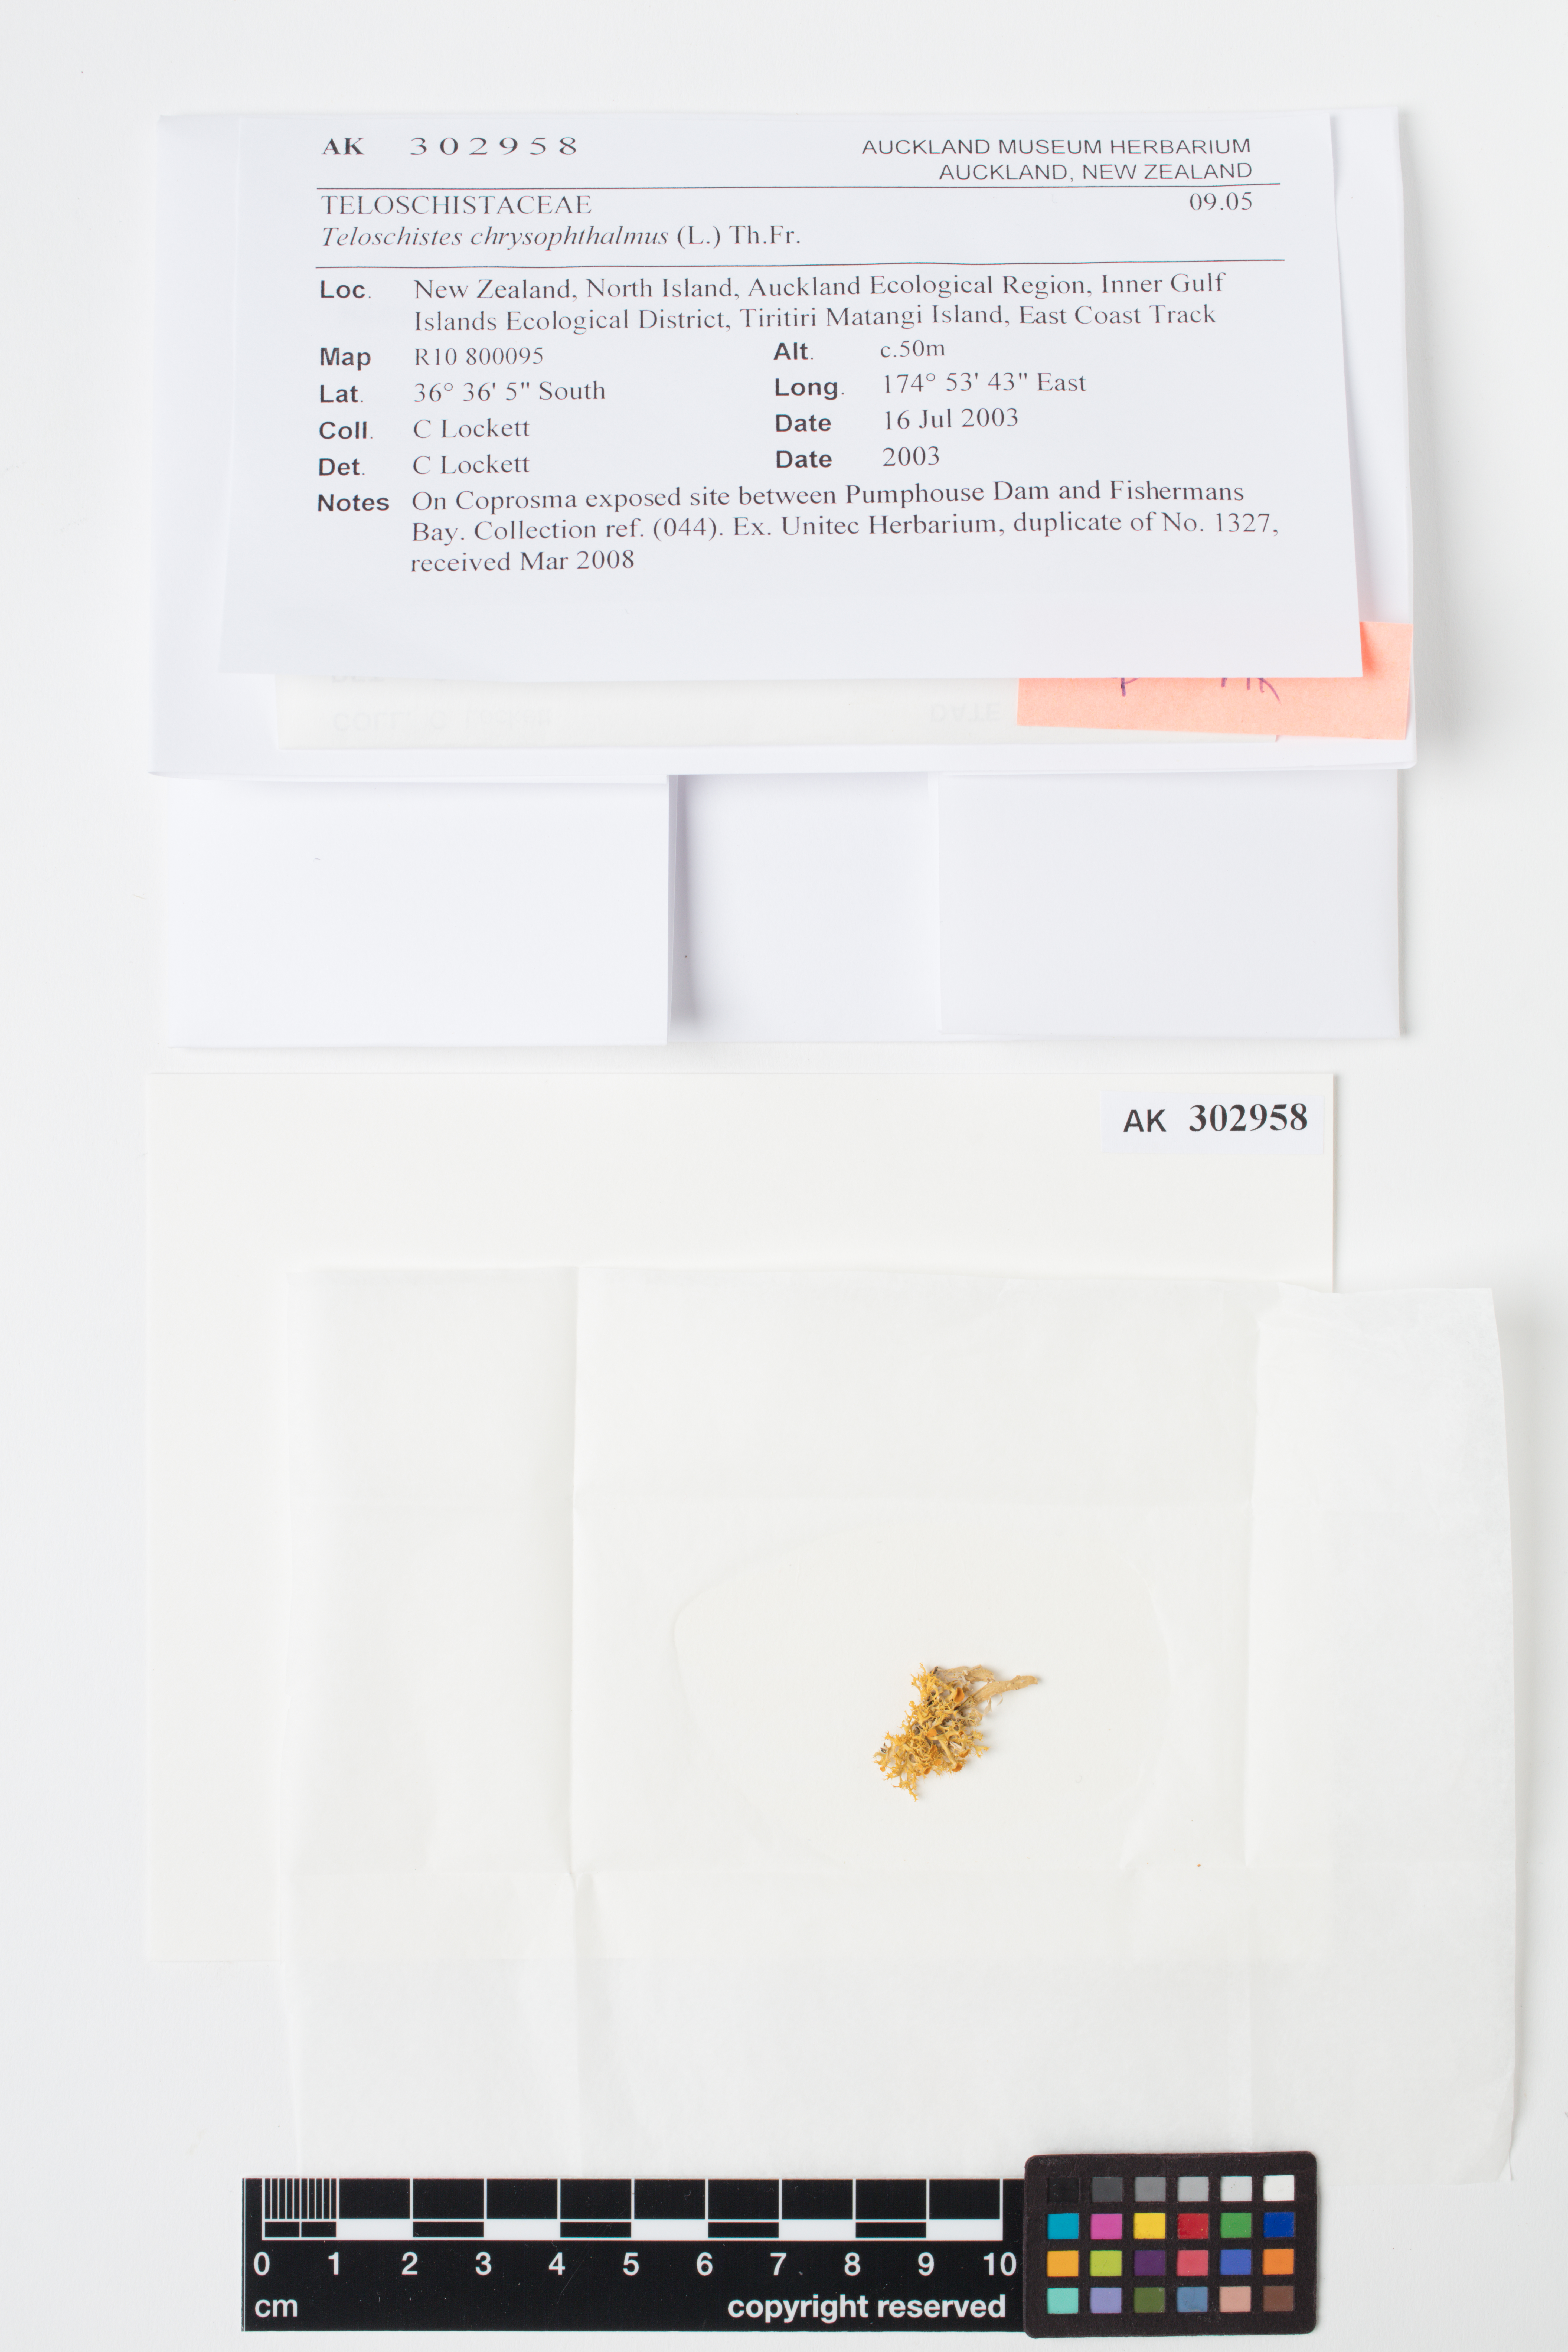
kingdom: Fungi
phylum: Ascomycota
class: Lecanoromycetes
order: Teloschistales
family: Teloschistaceae
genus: Niorma
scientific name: Niorma chrysophthalma
